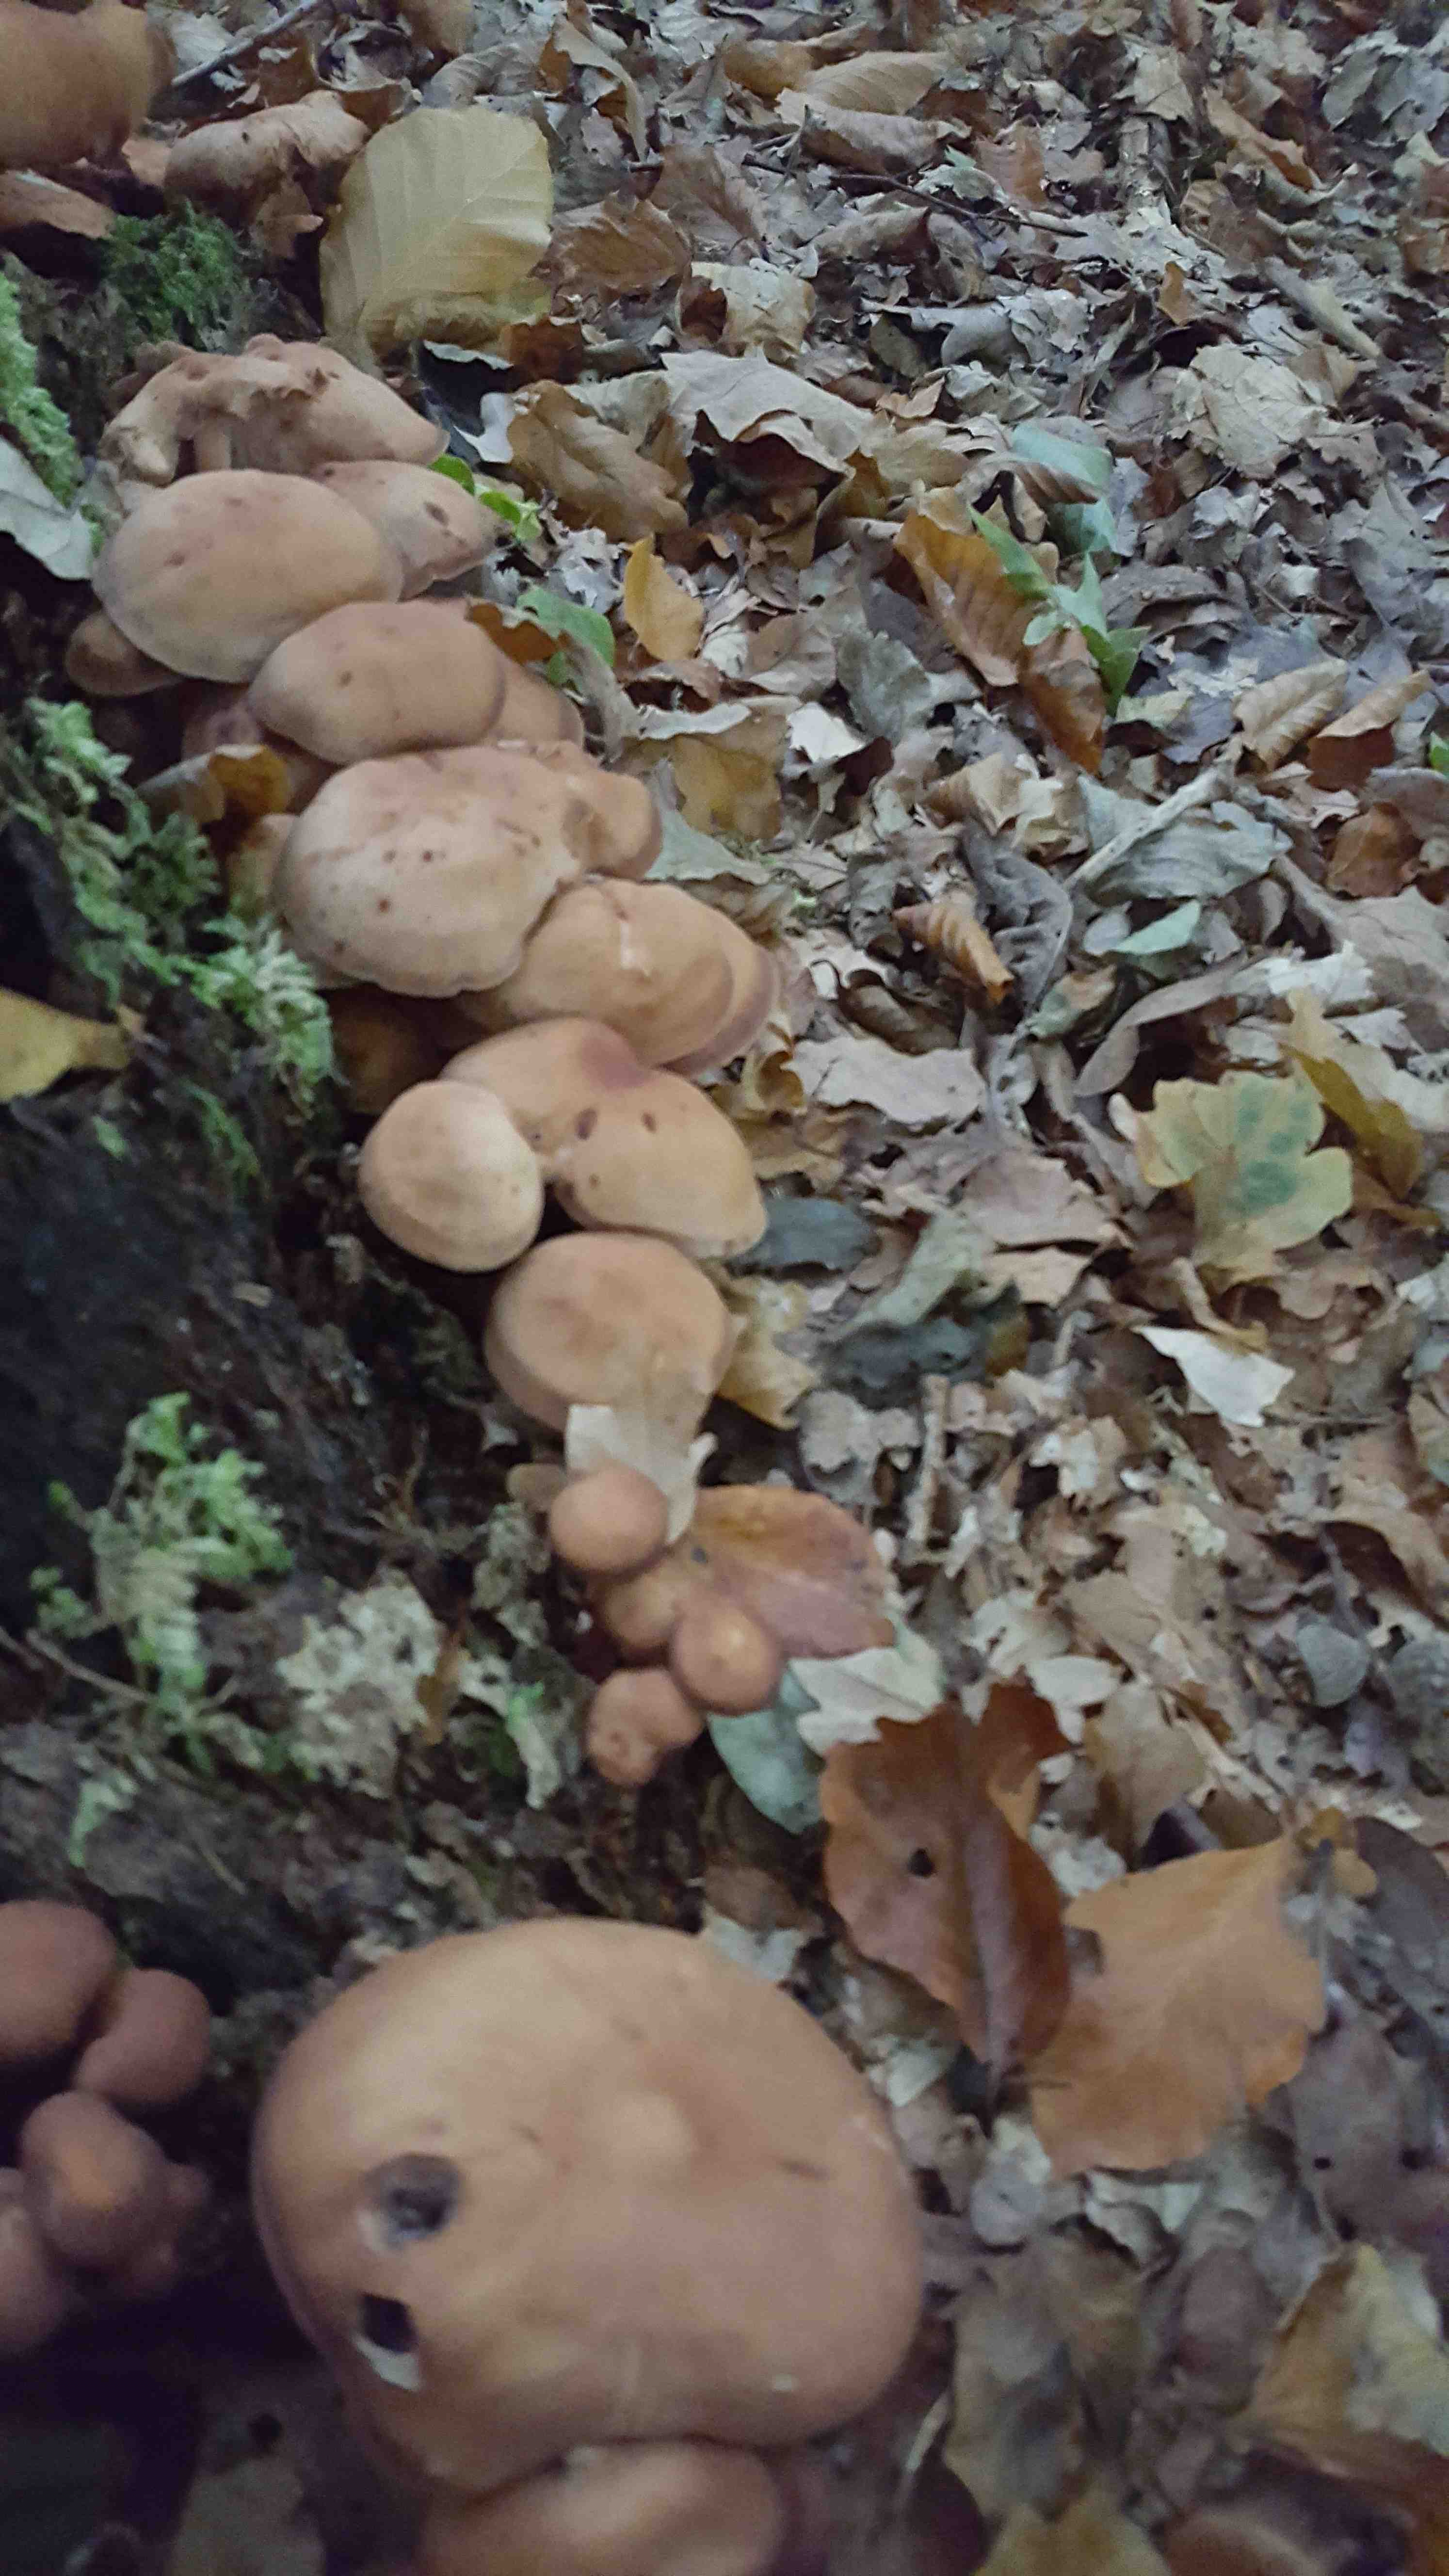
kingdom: Fungi
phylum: Basidiomycota
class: Agaricomycetes
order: Agaricales
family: Omphalotaceae
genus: Gymnopus
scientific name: Gymnopus fusipes
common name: tenstokket fladhat
